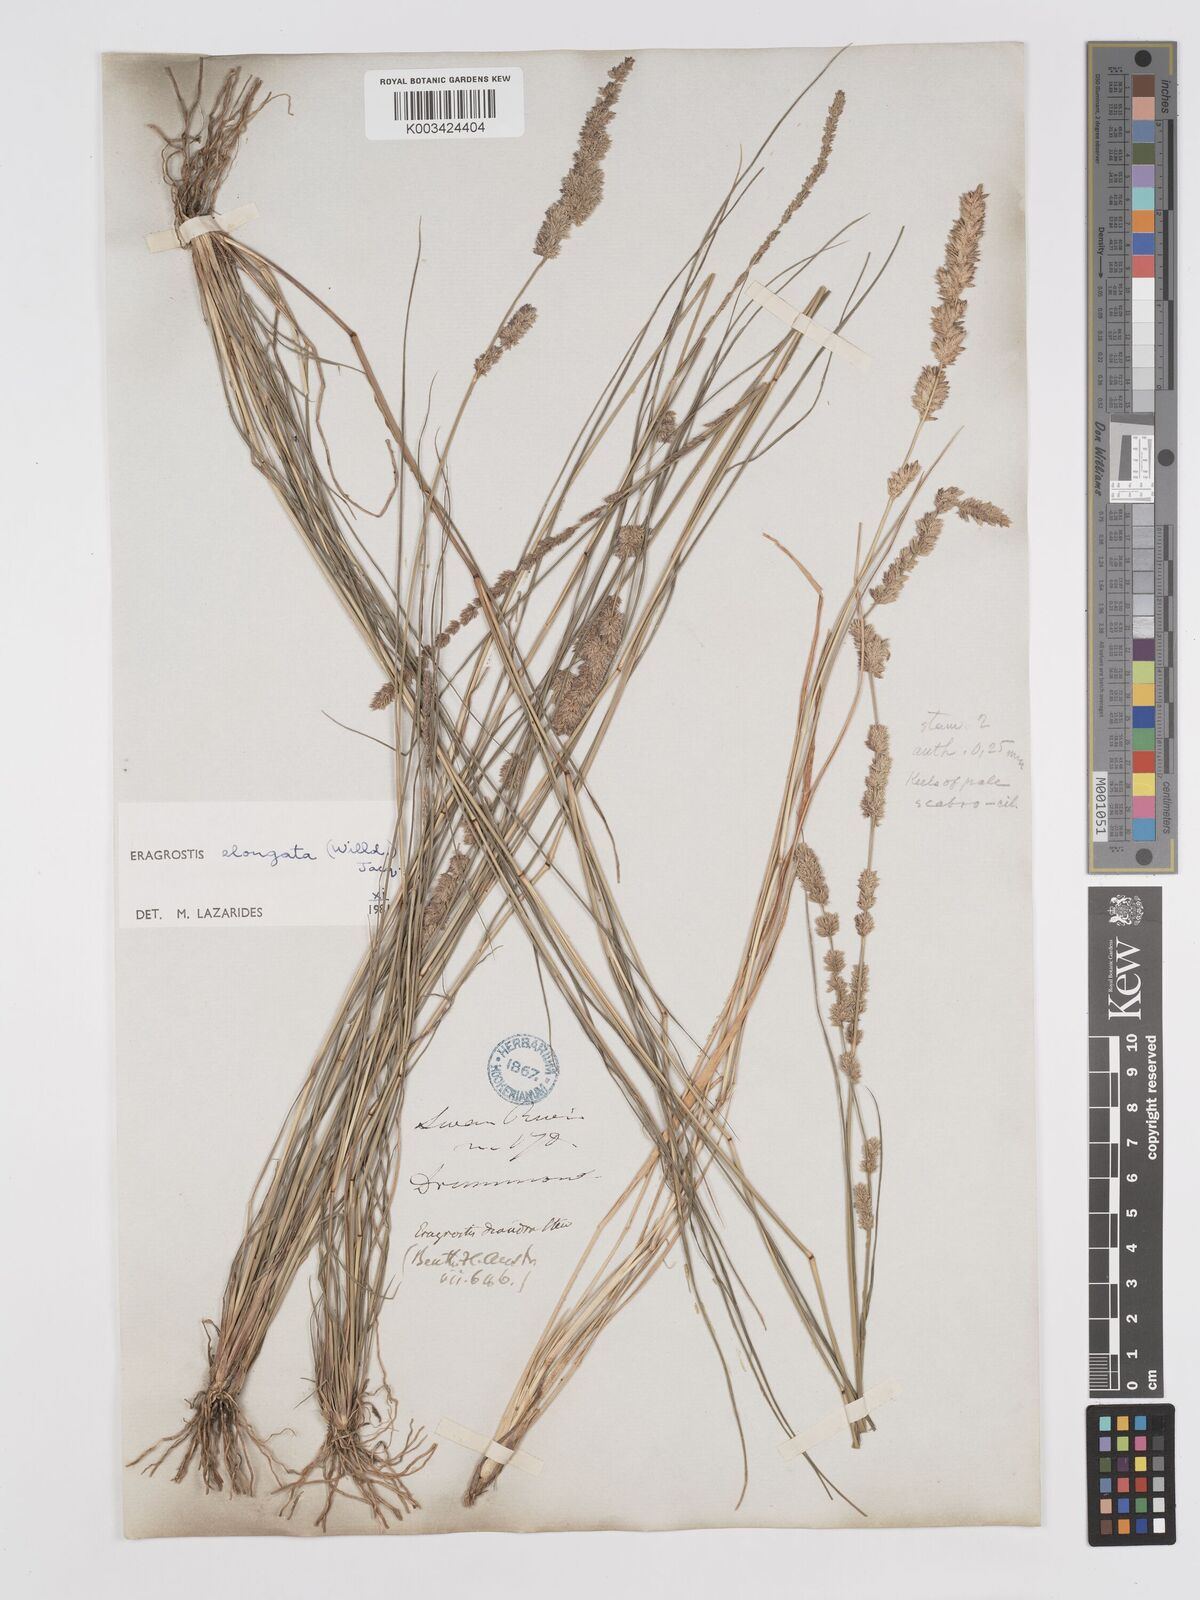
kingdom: Plantae
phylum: Tracheophyta
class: Liliopsida
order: Poales
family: Poaceae
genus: Eragrostis
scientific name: Eragrostis elongata
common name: Long lovegrass
